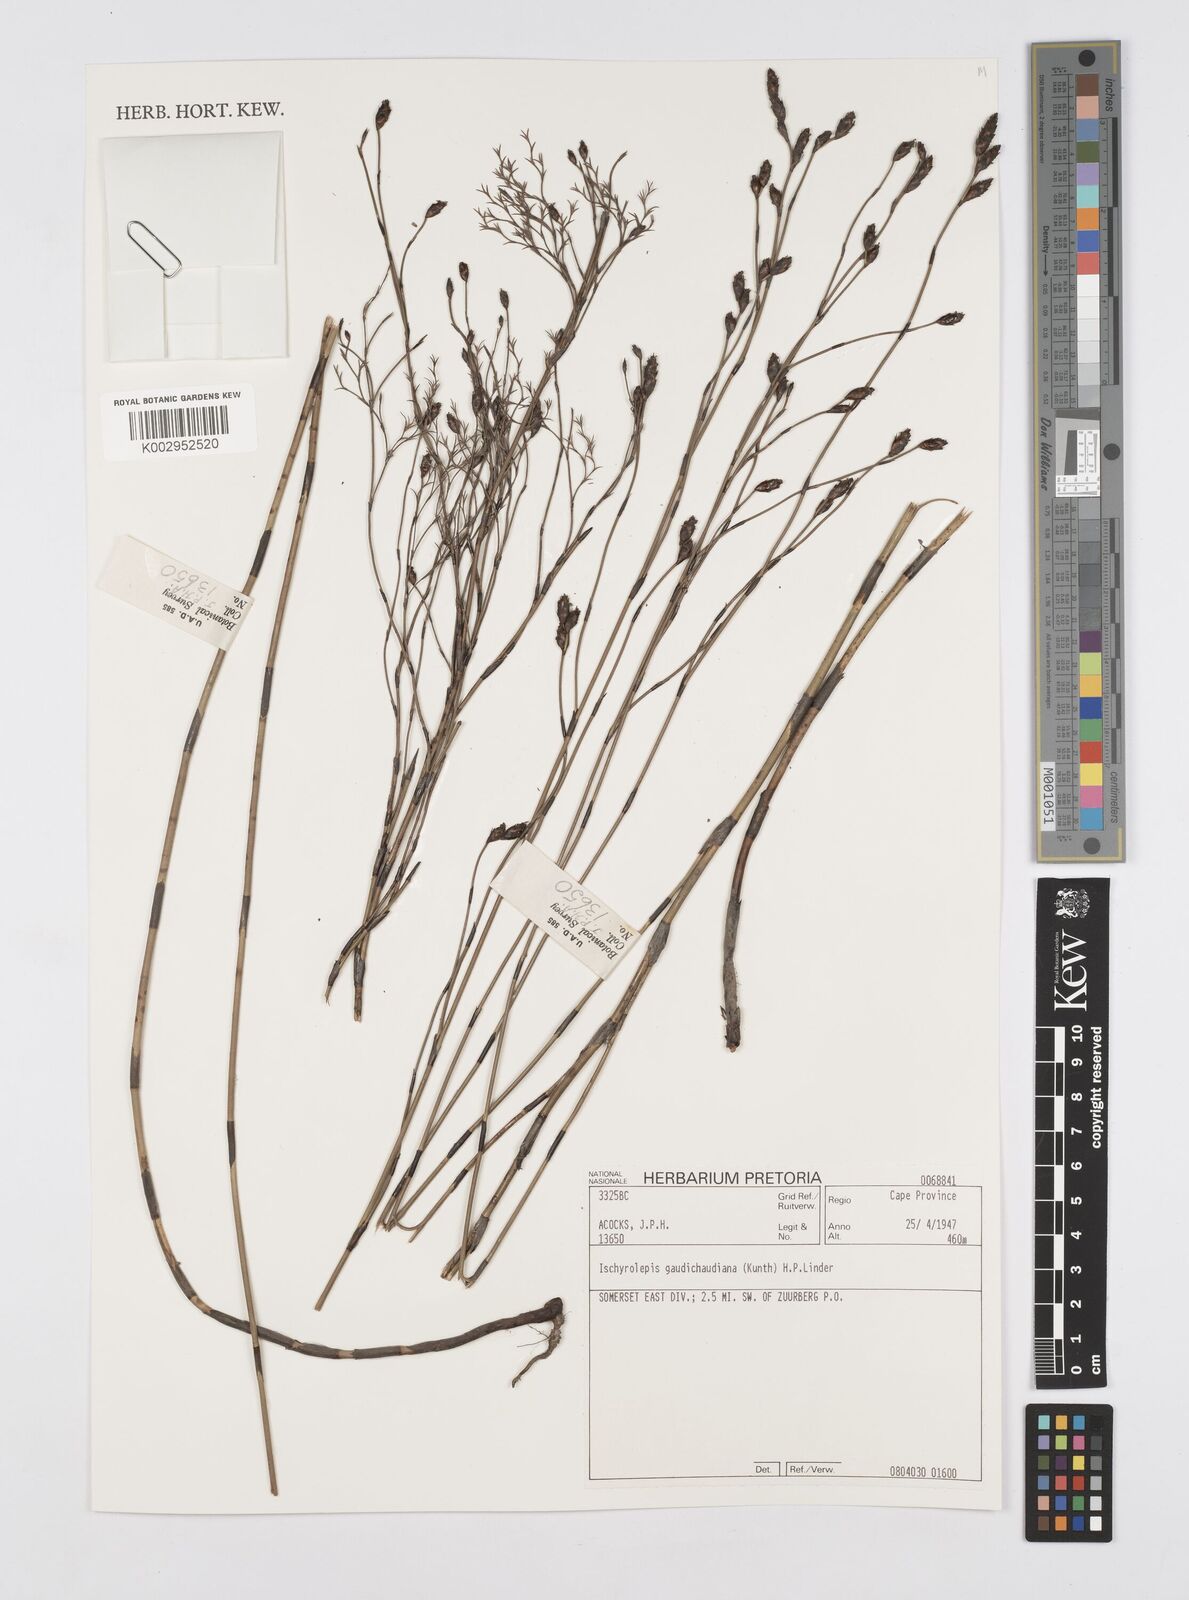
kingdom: Plantae
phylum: Tracheophyta
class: Liliopsida
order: Poales
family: Restionaceae
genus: Restio
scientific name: Restio gaudichaudianus
